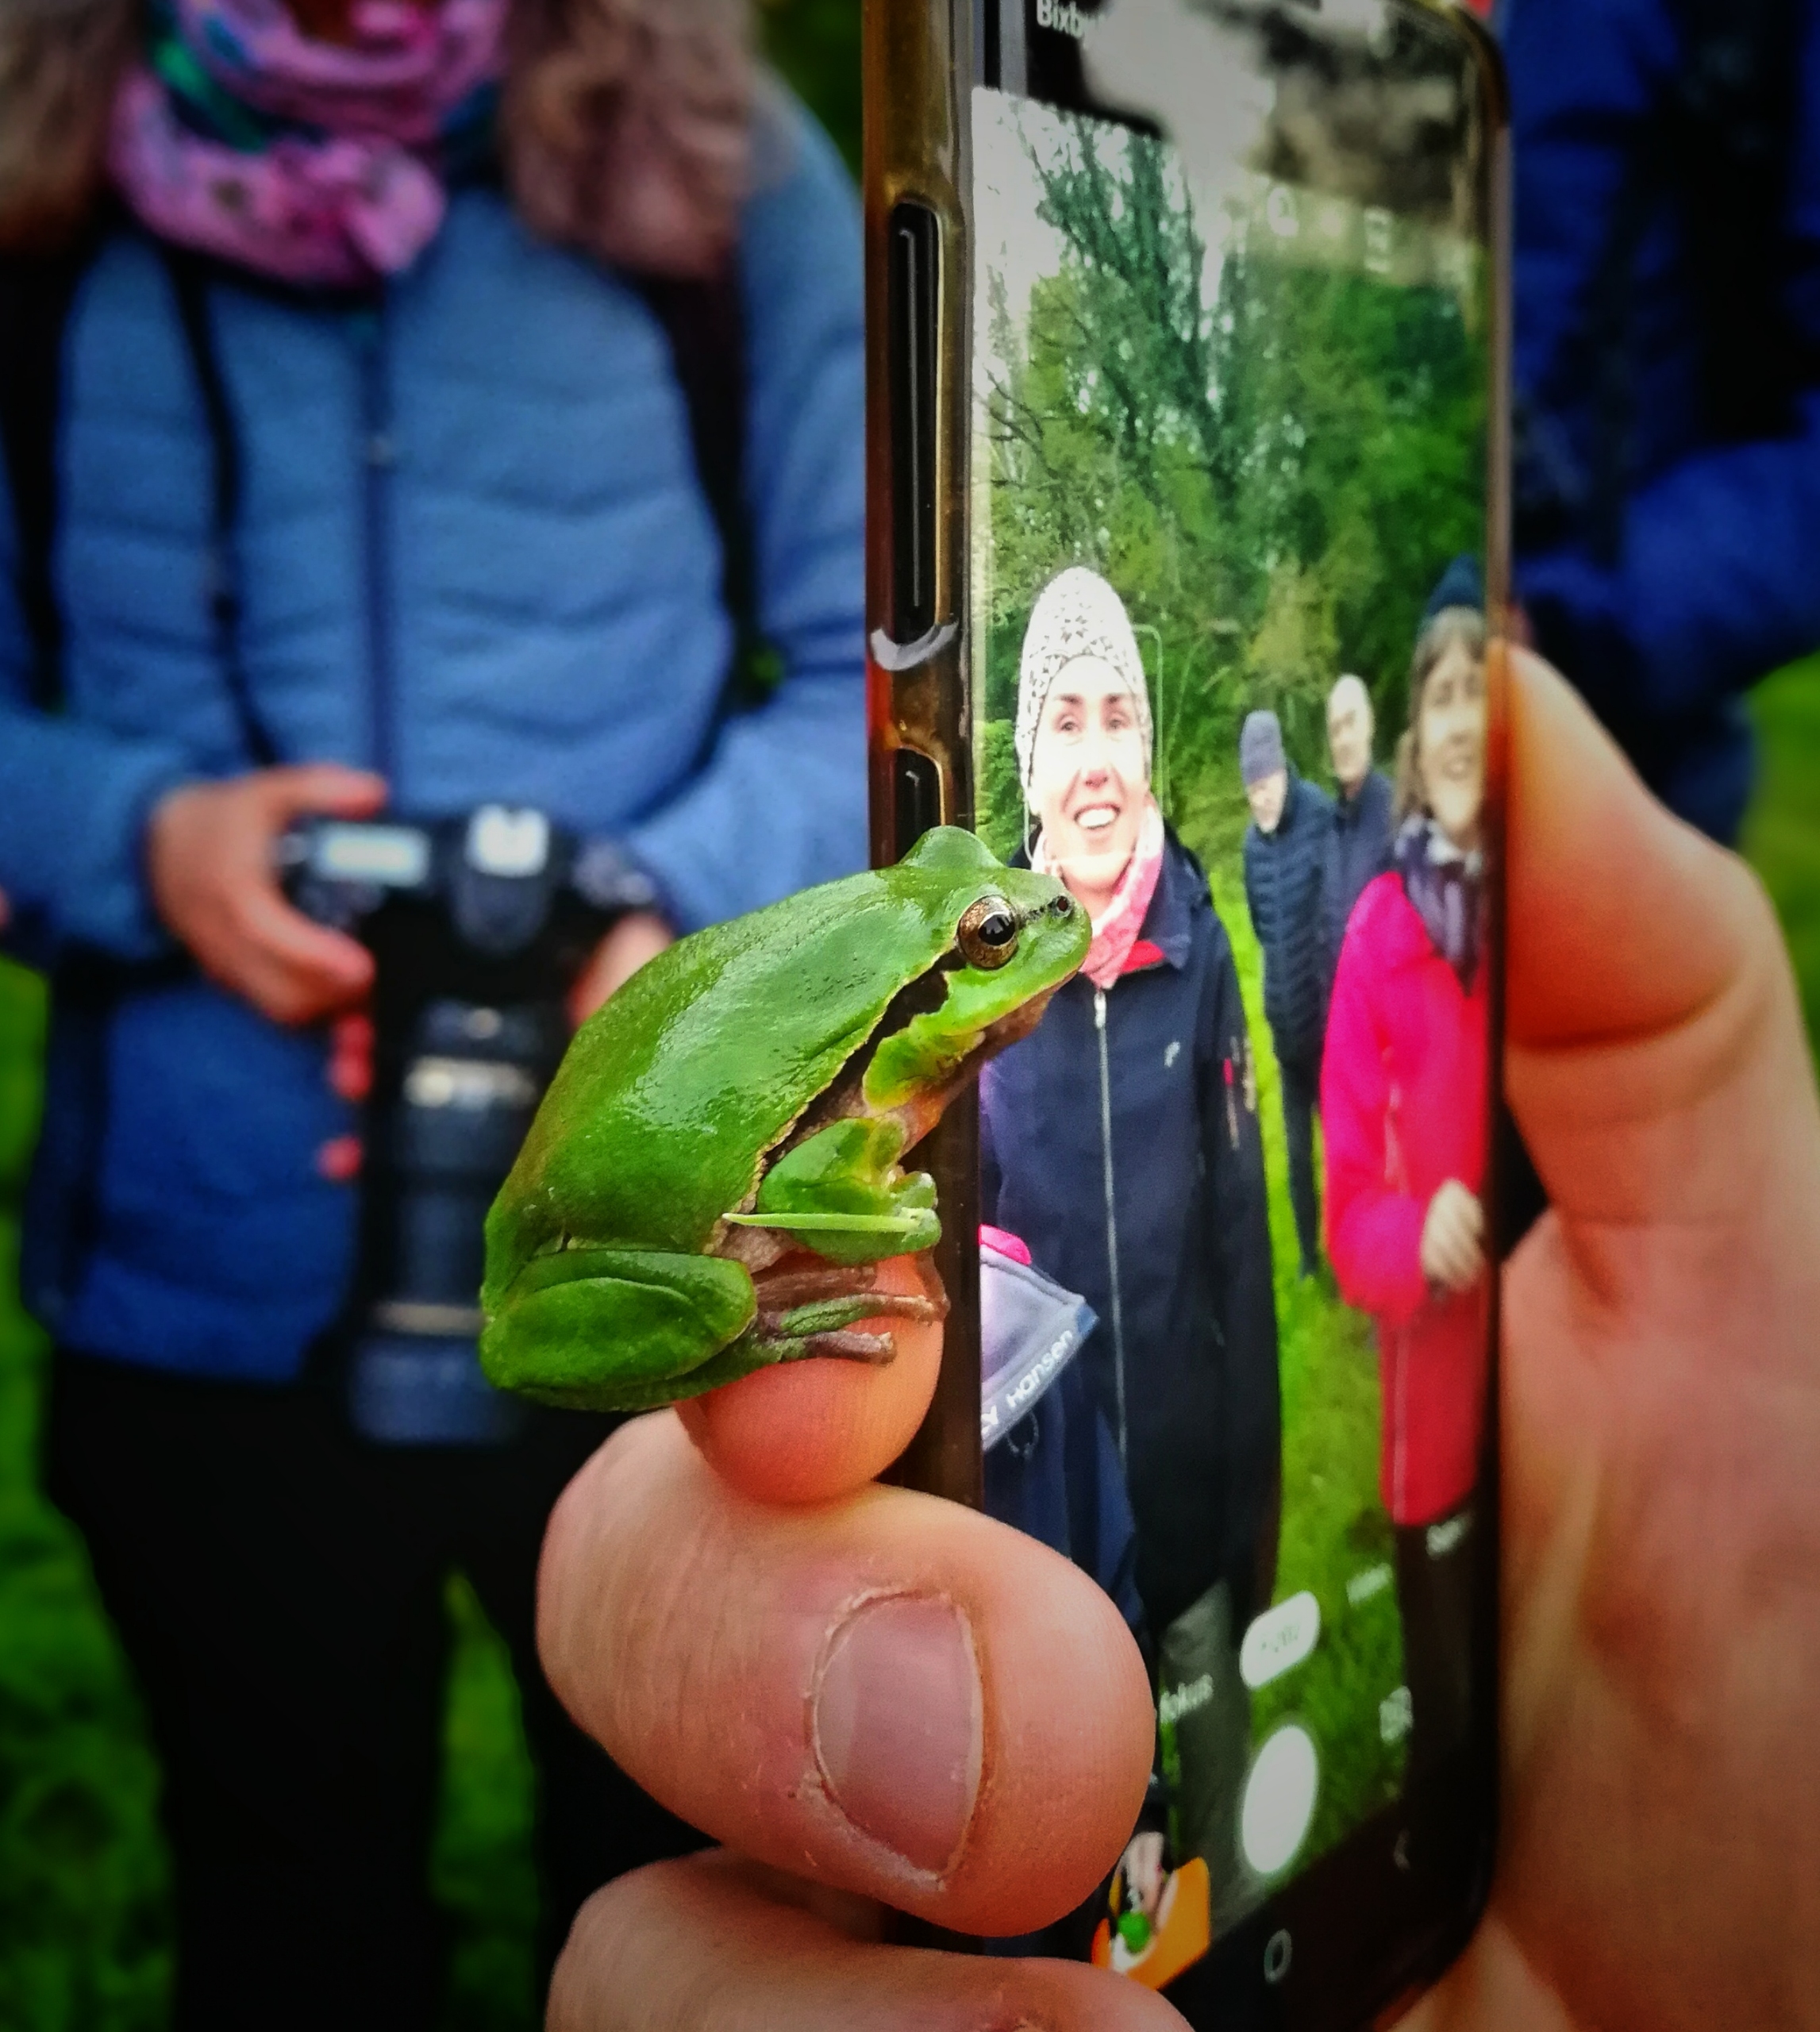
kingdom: Animalia
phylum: Chordata
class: Amphibia
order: Anura
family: Hylidae
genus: Hyla
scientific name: Hyla arborea
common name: Løvfrø
